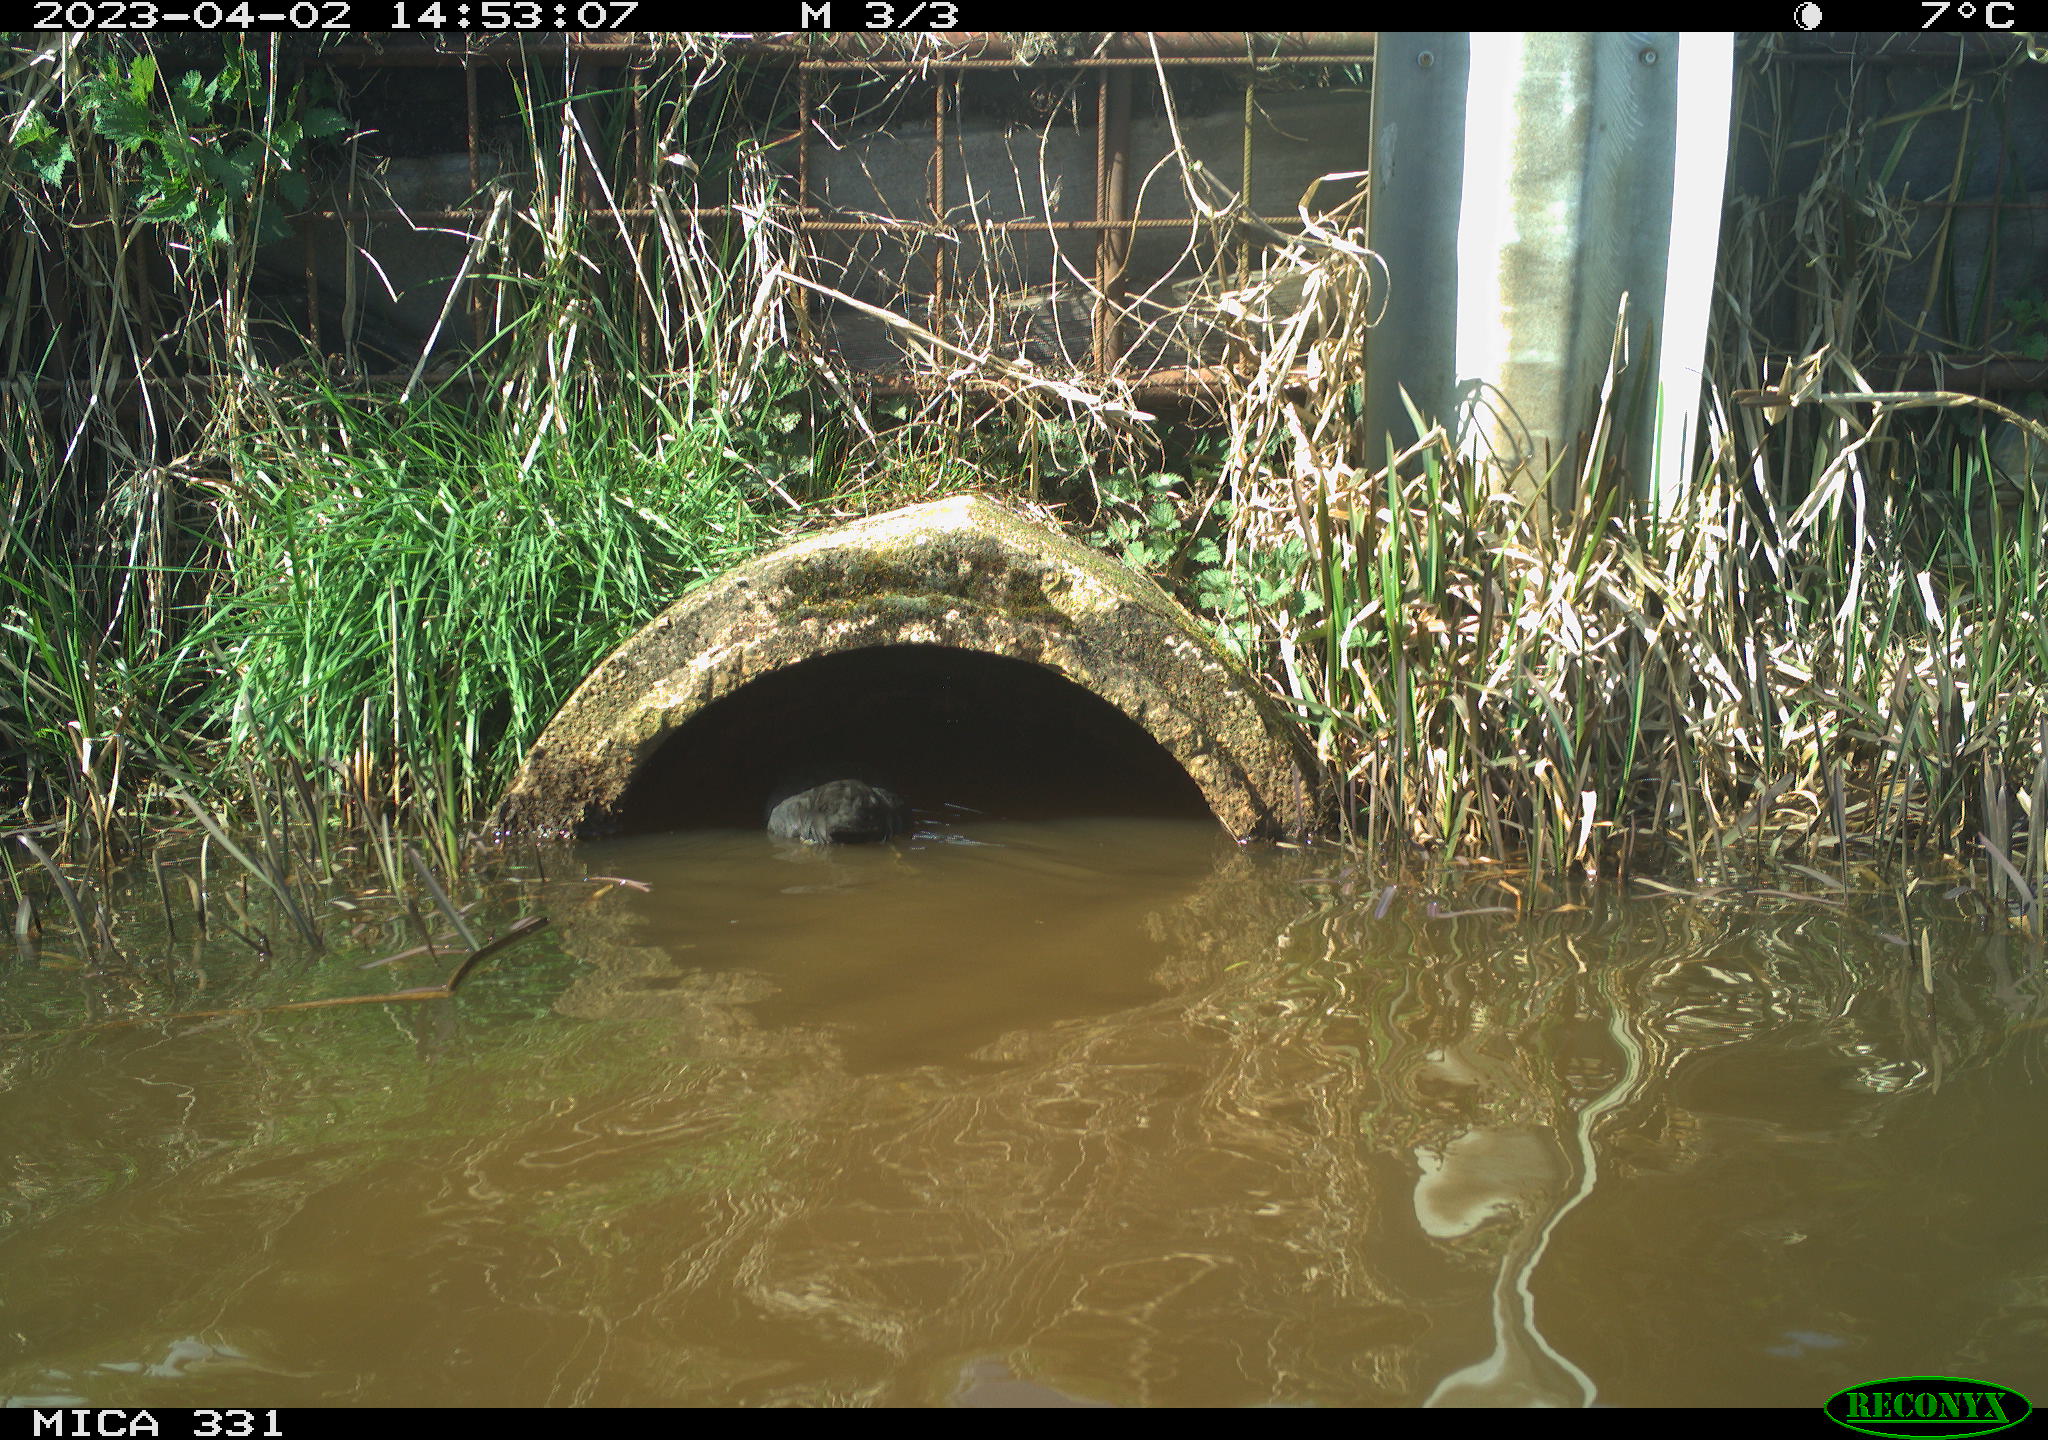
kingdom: Animalia
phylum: Chordata
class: Aves
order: Gruiformes
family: Rallidae
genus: Gallinula
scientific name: Gallinula chloropus
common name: Common moorhen
